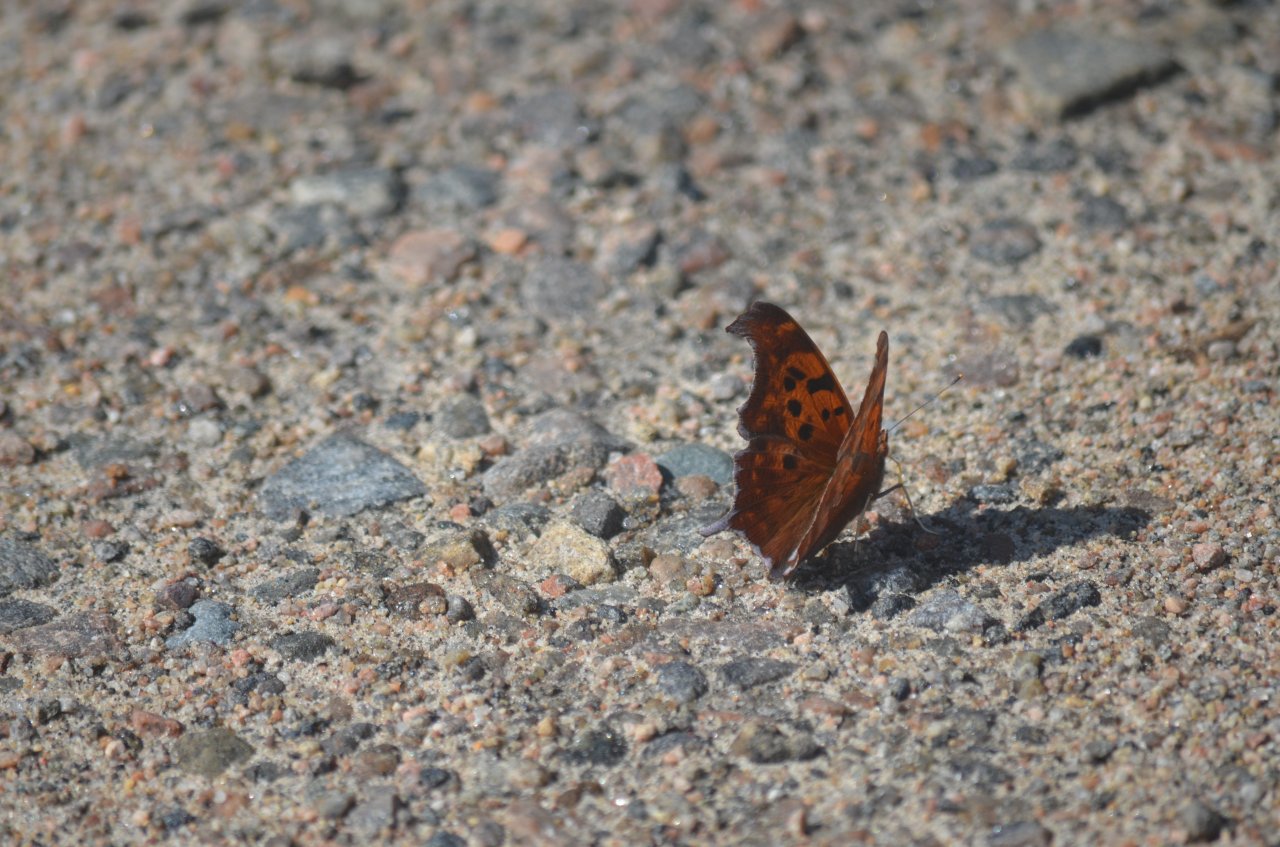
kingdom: Animalia
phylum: Arthropoda
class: Insecta
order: Lepidoptera
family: Nymphalidae
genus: Polygonia
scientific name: Polygonia interrogationis
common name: Question Mark
